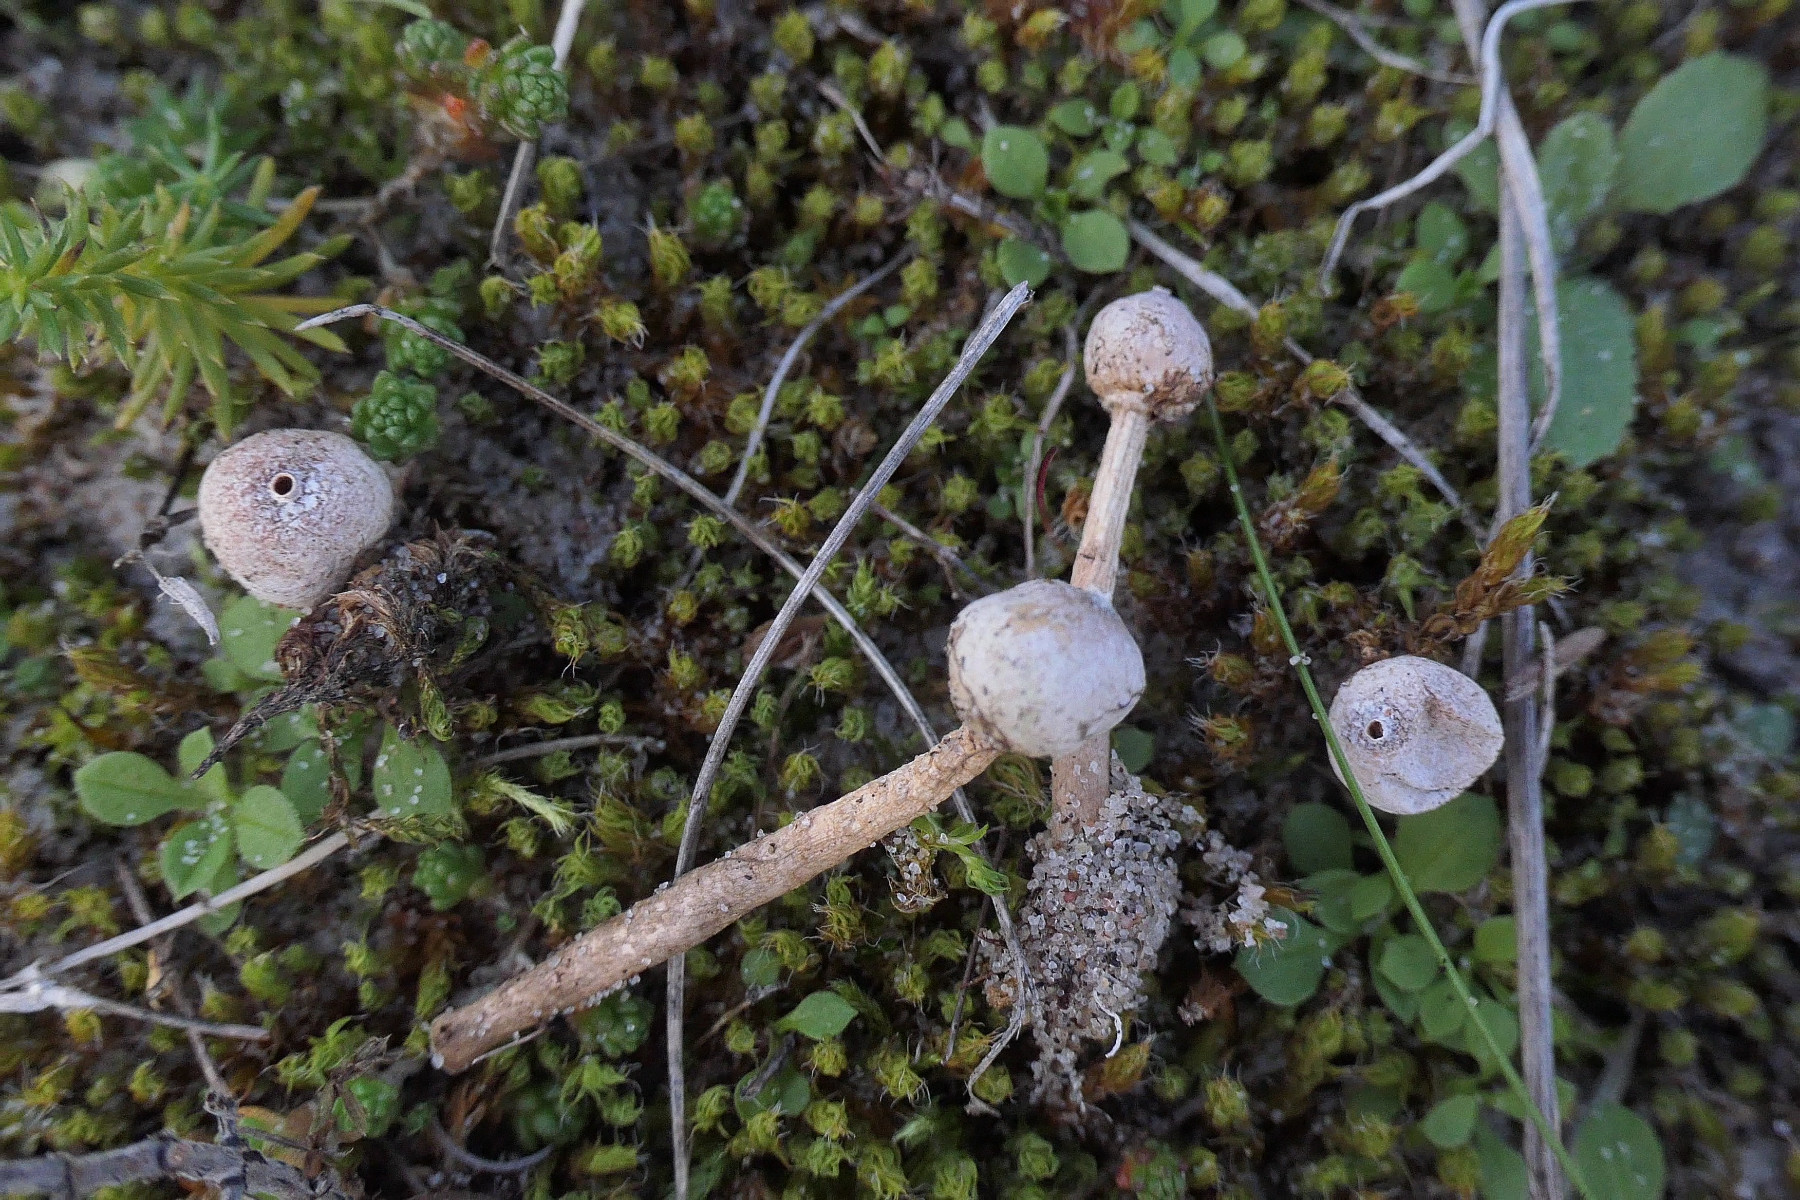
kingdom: Fungi
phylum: Basidiomycota
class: Agaricomycetes
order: Agaricales
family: Agaricaceae
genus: Tulostoma
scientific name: Tulostoma brumale
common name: vinter-stilkbovist
